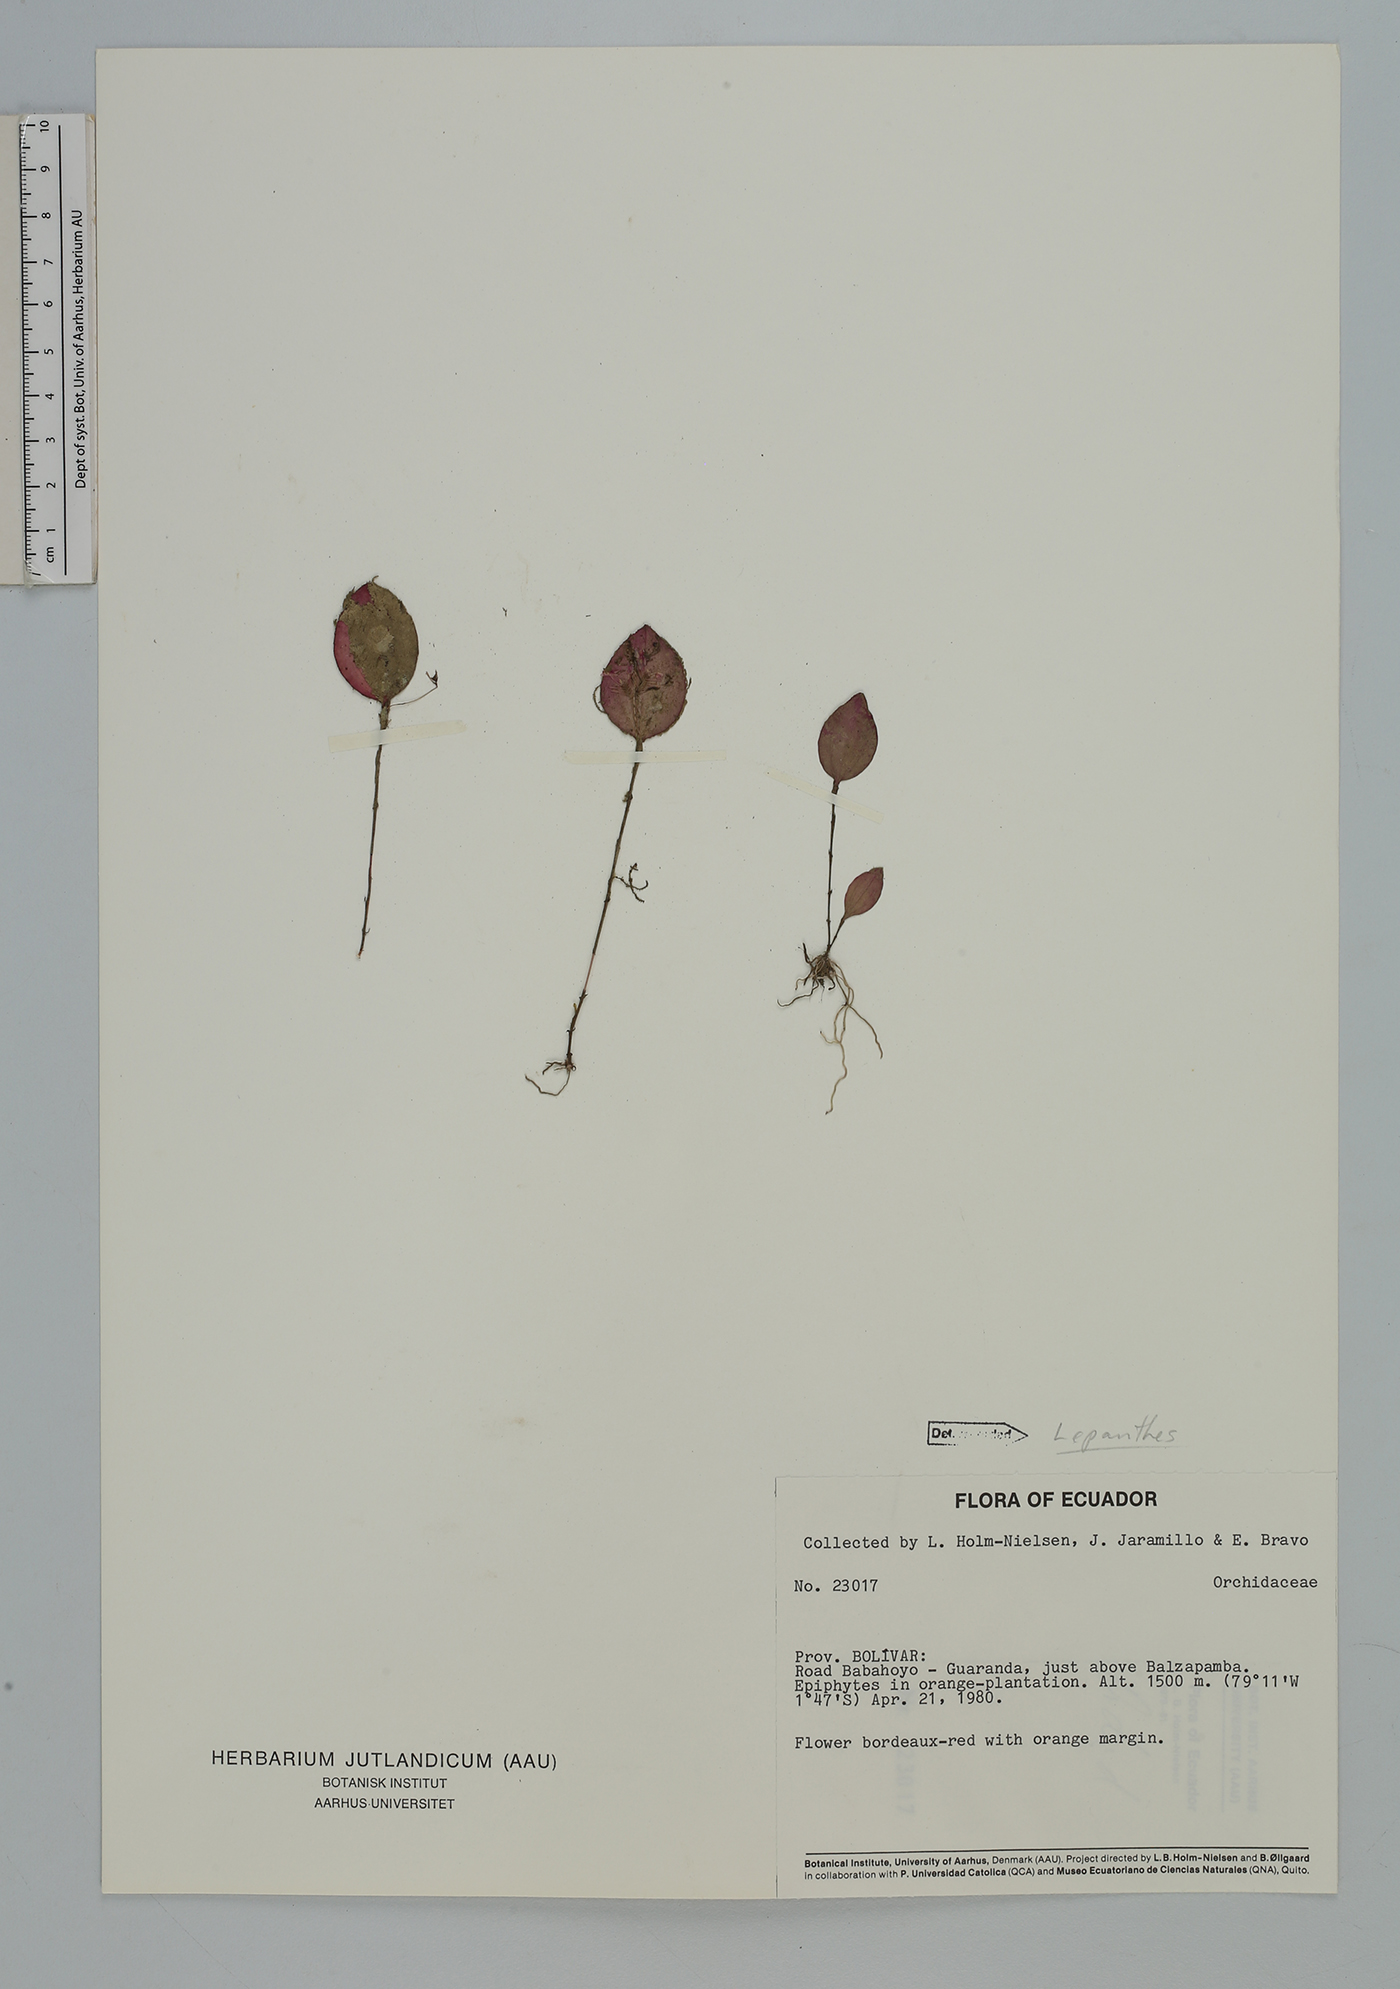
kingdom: Plantae
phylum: Tracheophyta
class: Liliopsida
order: Asparagales
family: Orchidaceae
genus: Lepanthes
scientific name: Lepanthes
